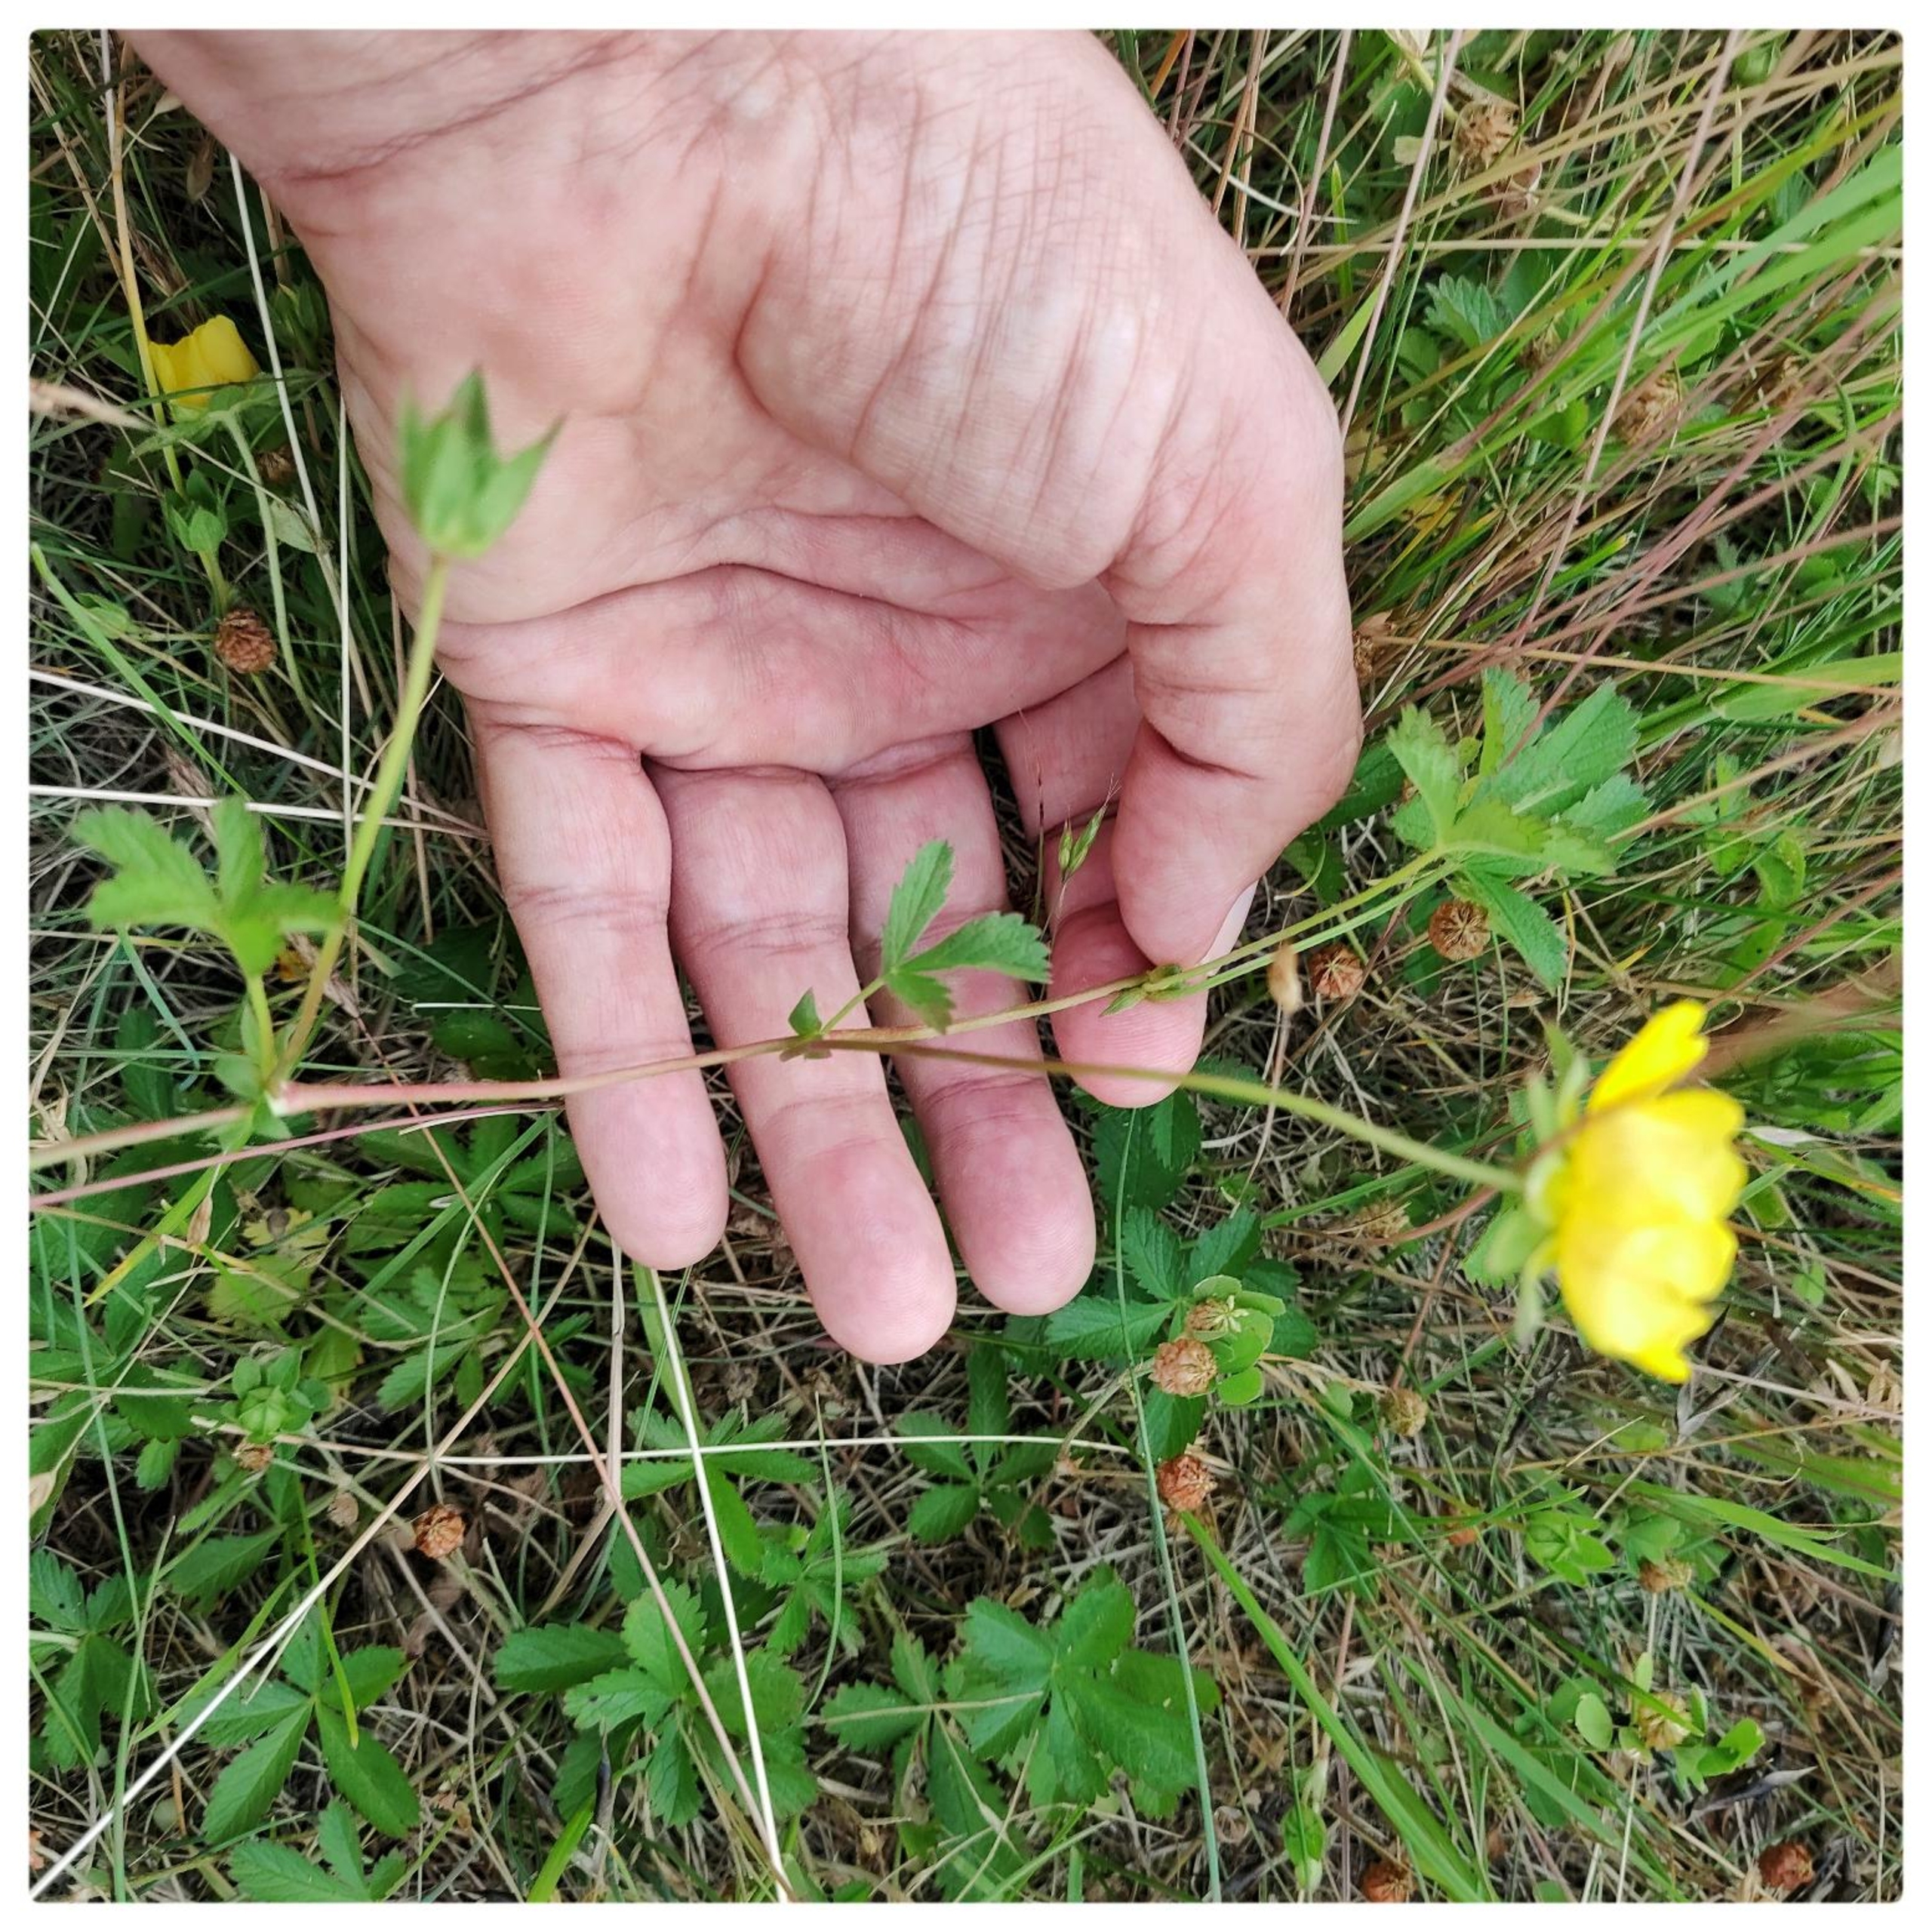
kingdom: Plantae
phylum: Tracheophyta
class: Magnoliopsida
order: Rosales
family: Rosaceae
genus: Potentilla
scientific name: Potentilla reptans
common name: Krybende potentil
